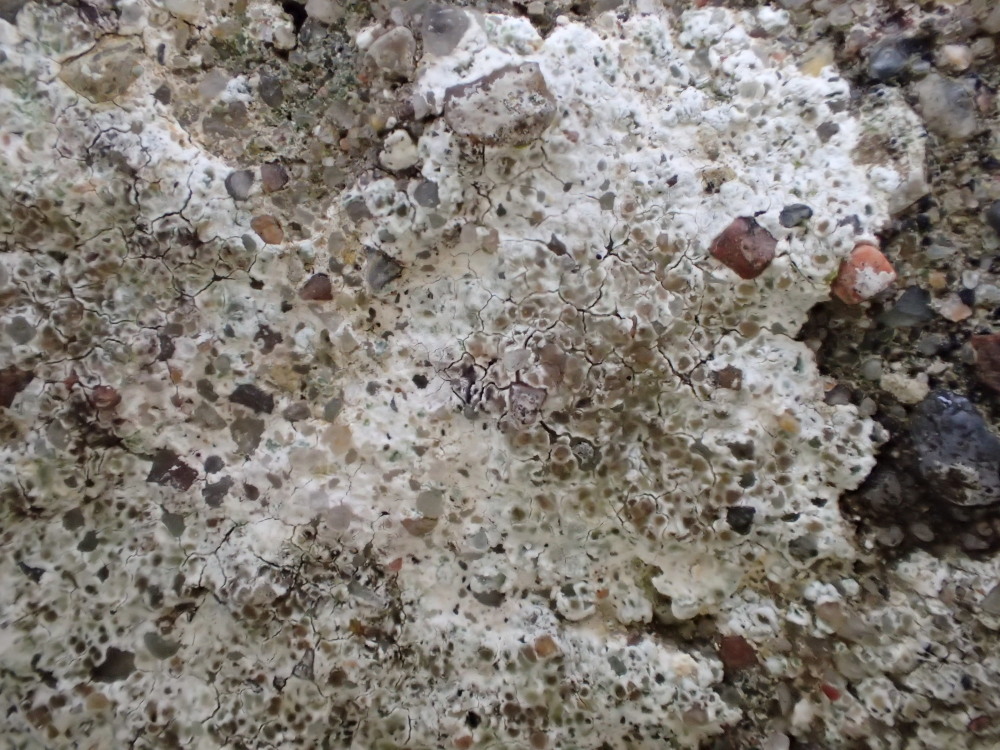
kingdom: Fungi
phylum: Ascomycota
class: Lecanoromycetes
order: Lecanorales
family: Lecanoraceae
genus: Polyozosia
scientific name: Polyozosia albescens
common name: cement-kantskivelav
